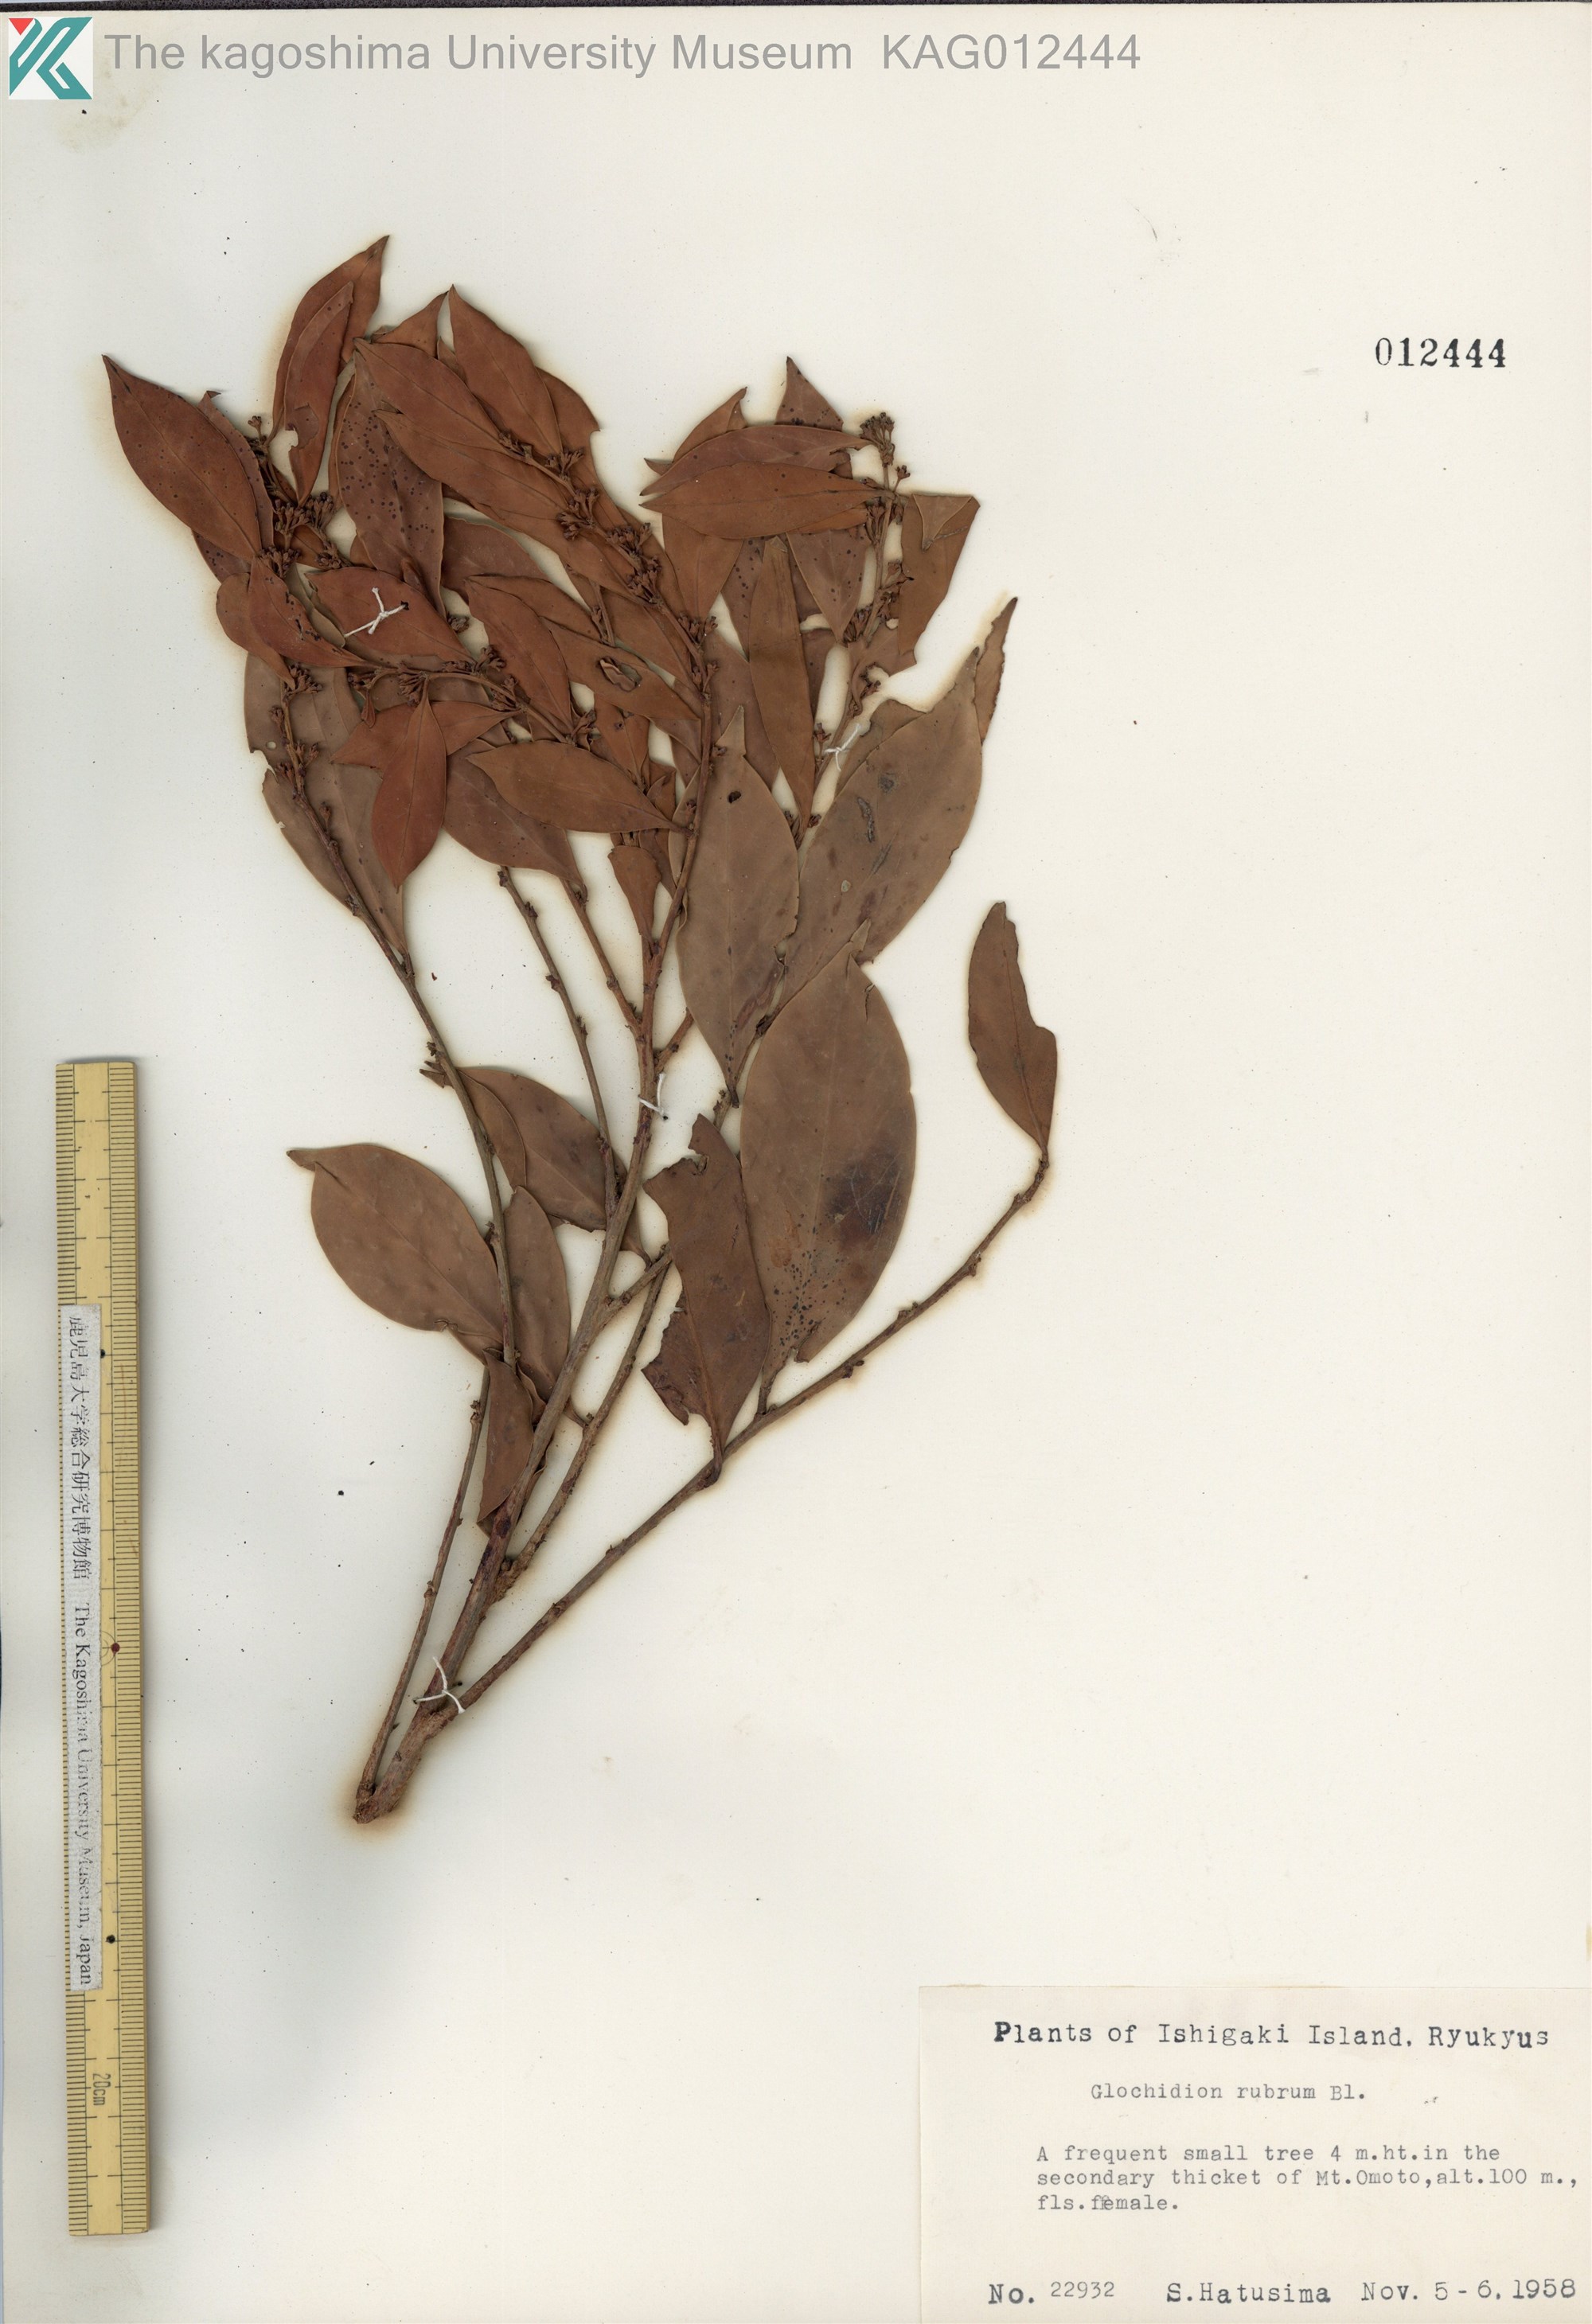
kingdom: Plantae
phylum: Tracheophyta
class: Magnoliopsida
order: Malpighiales
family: Phyllanthaceae
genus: Glochidion
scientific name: Glochidion rubrum
